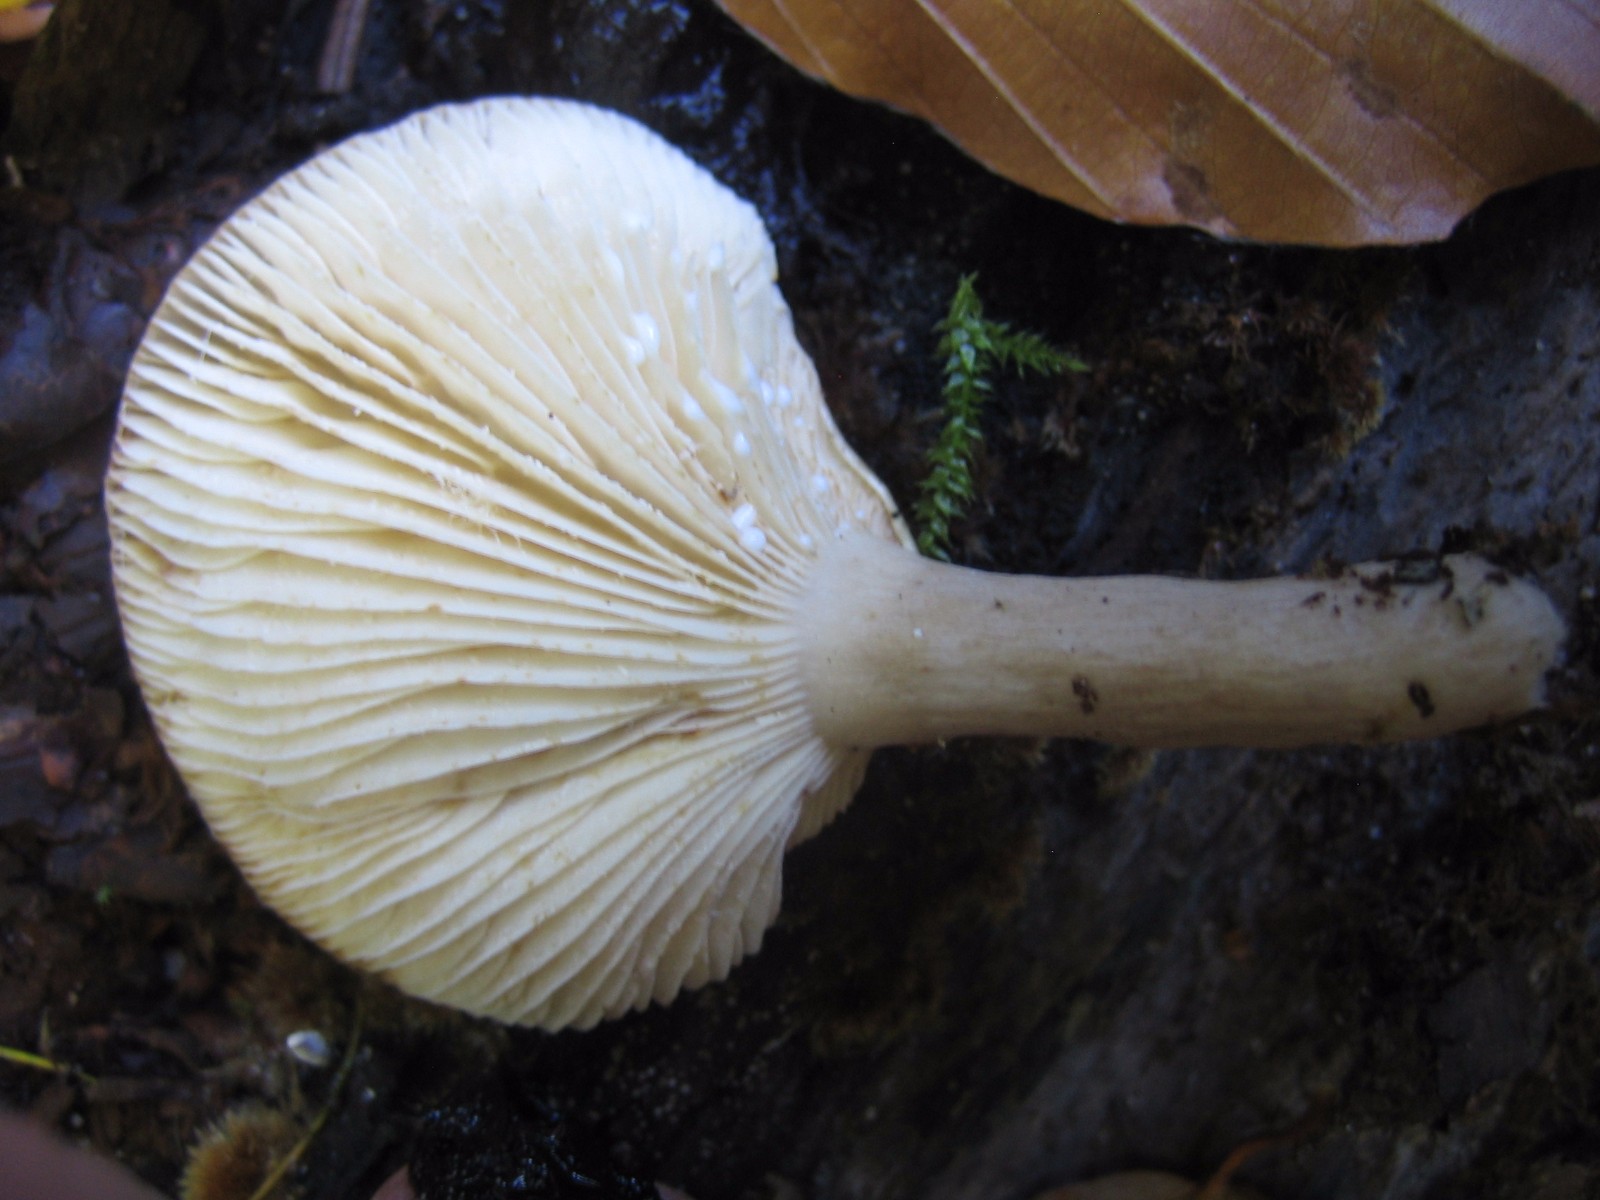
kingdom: Fungi
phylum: Basidiomycota
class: Agaricomycetes
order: Russulales
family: Russulaceae
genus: Lactarius
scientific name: Lactarius
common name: mælkehat
